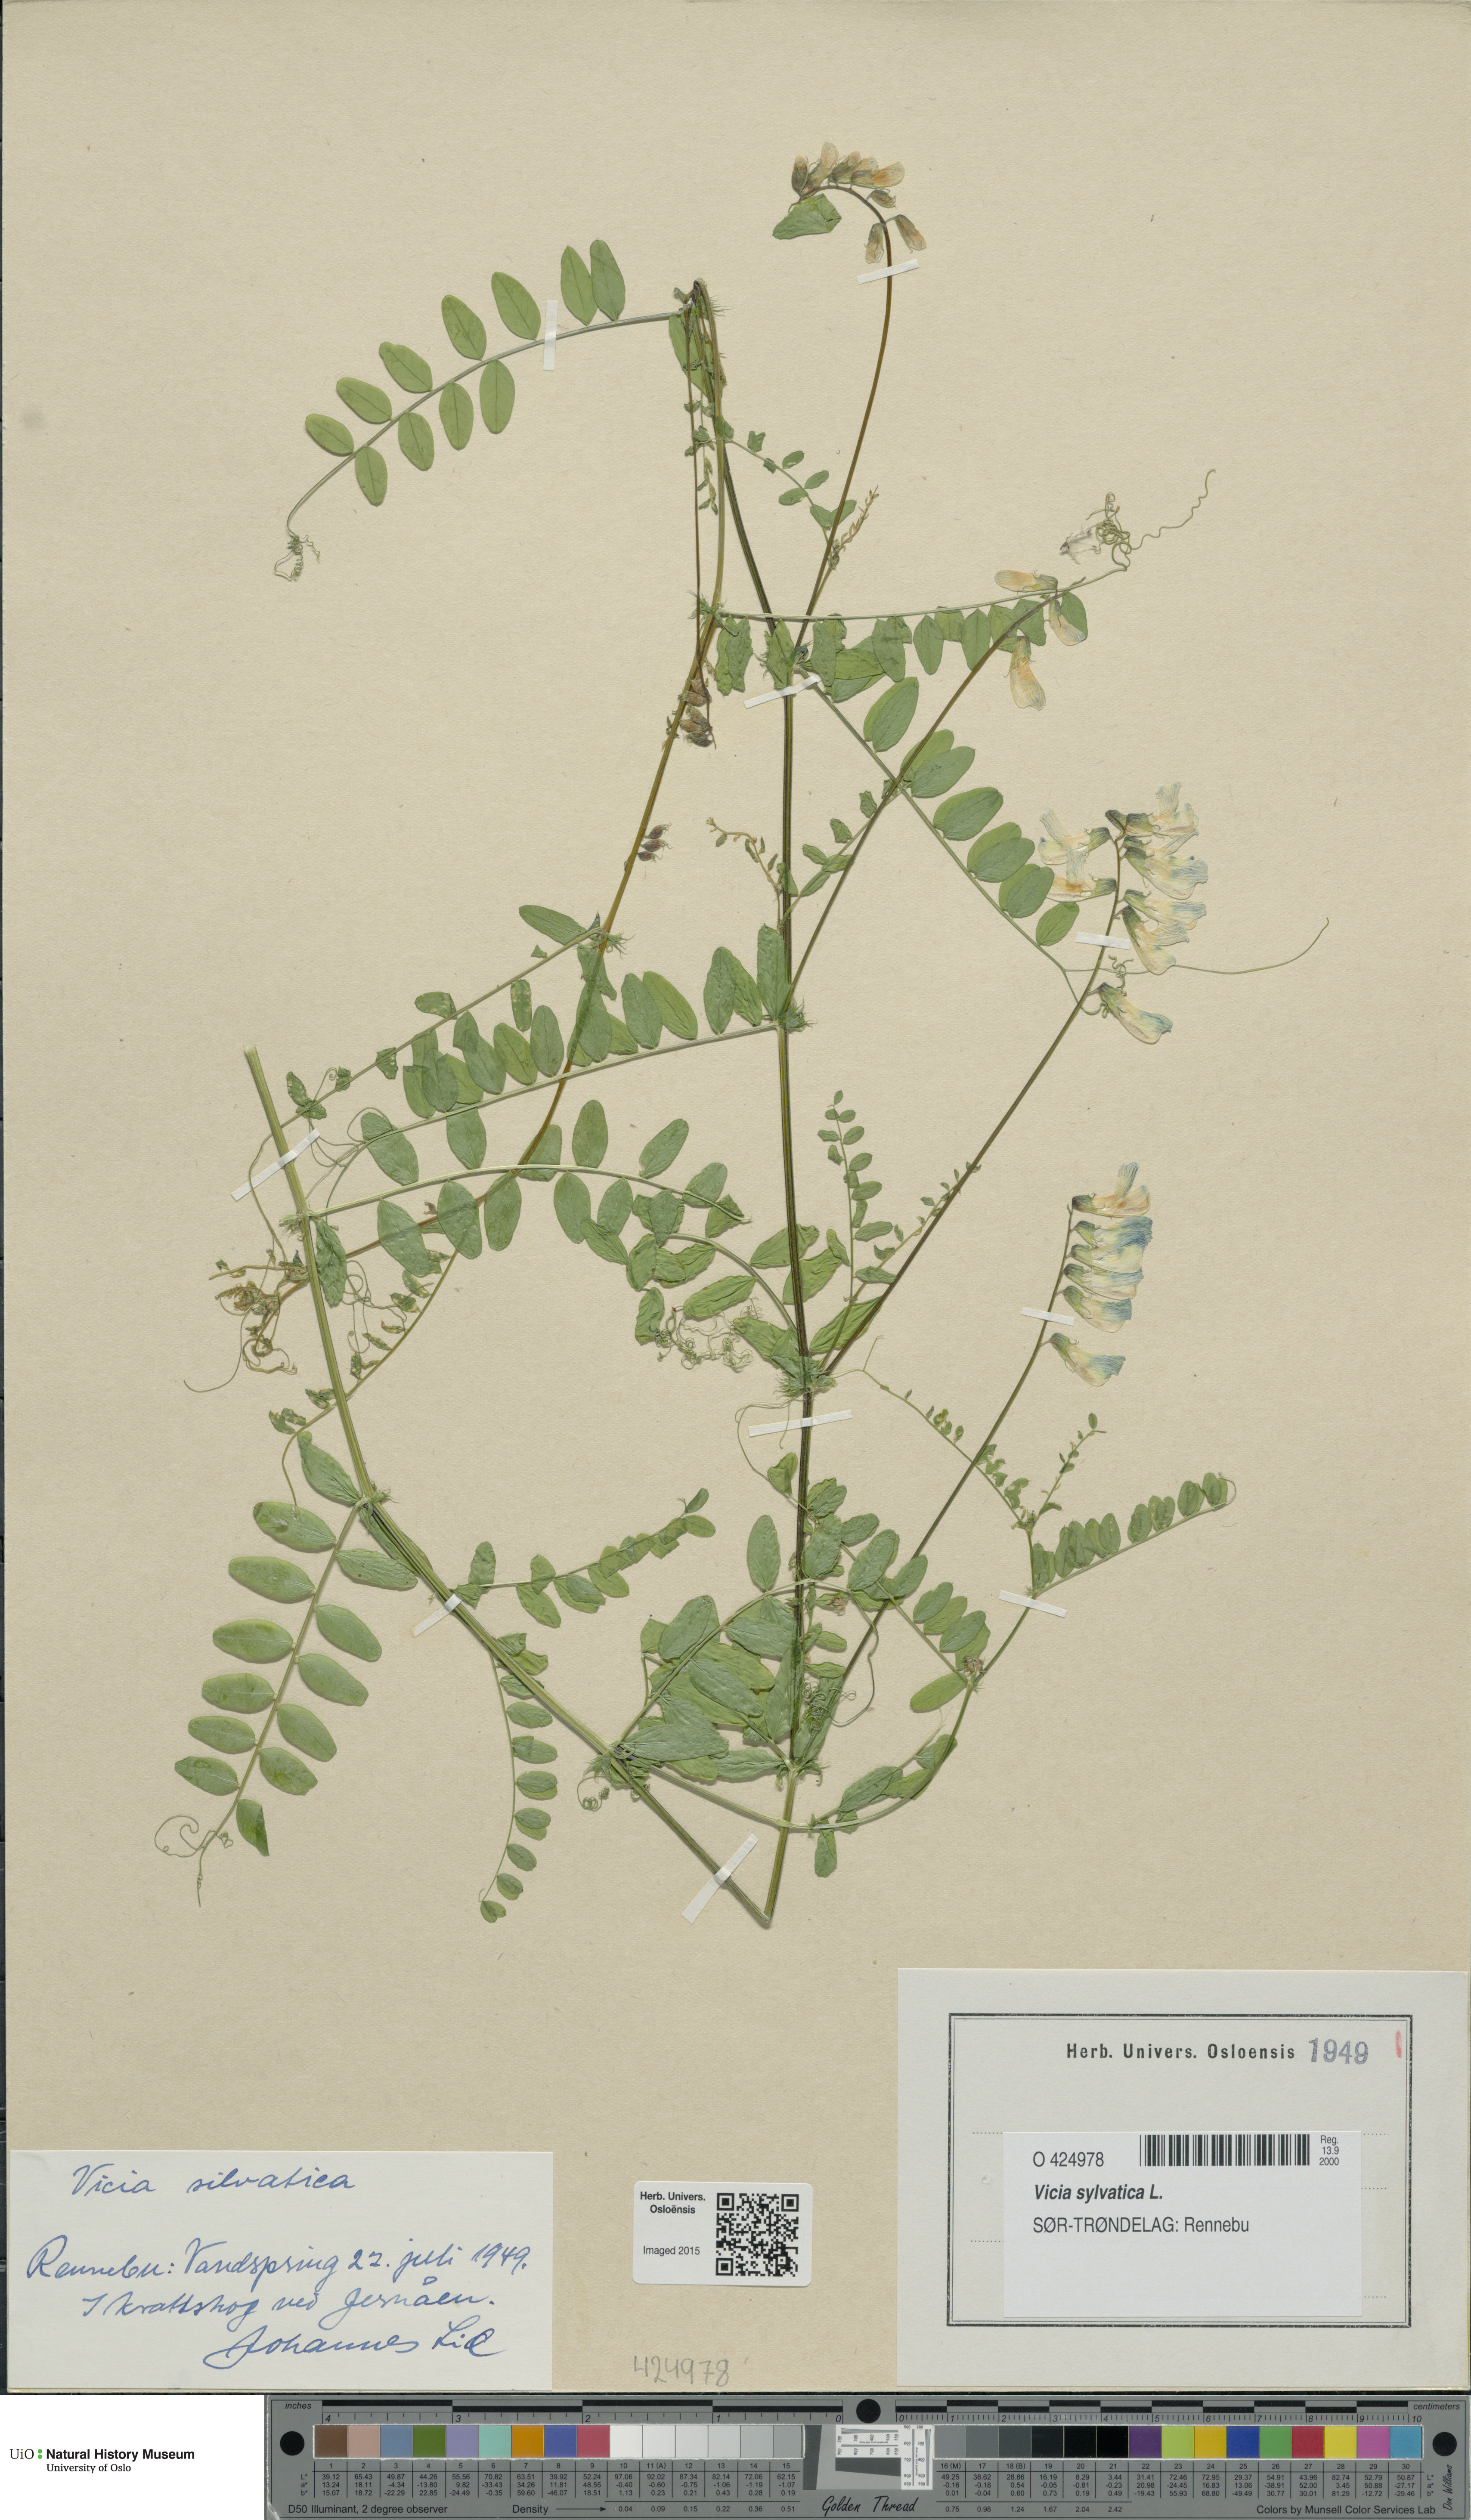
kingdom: Plantae
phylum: Tracheophyta
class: Magnoliopsida
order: Fabales
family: Fabaceae
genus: Vicia
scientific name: Vicia sylvatica
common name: Wood vetch
